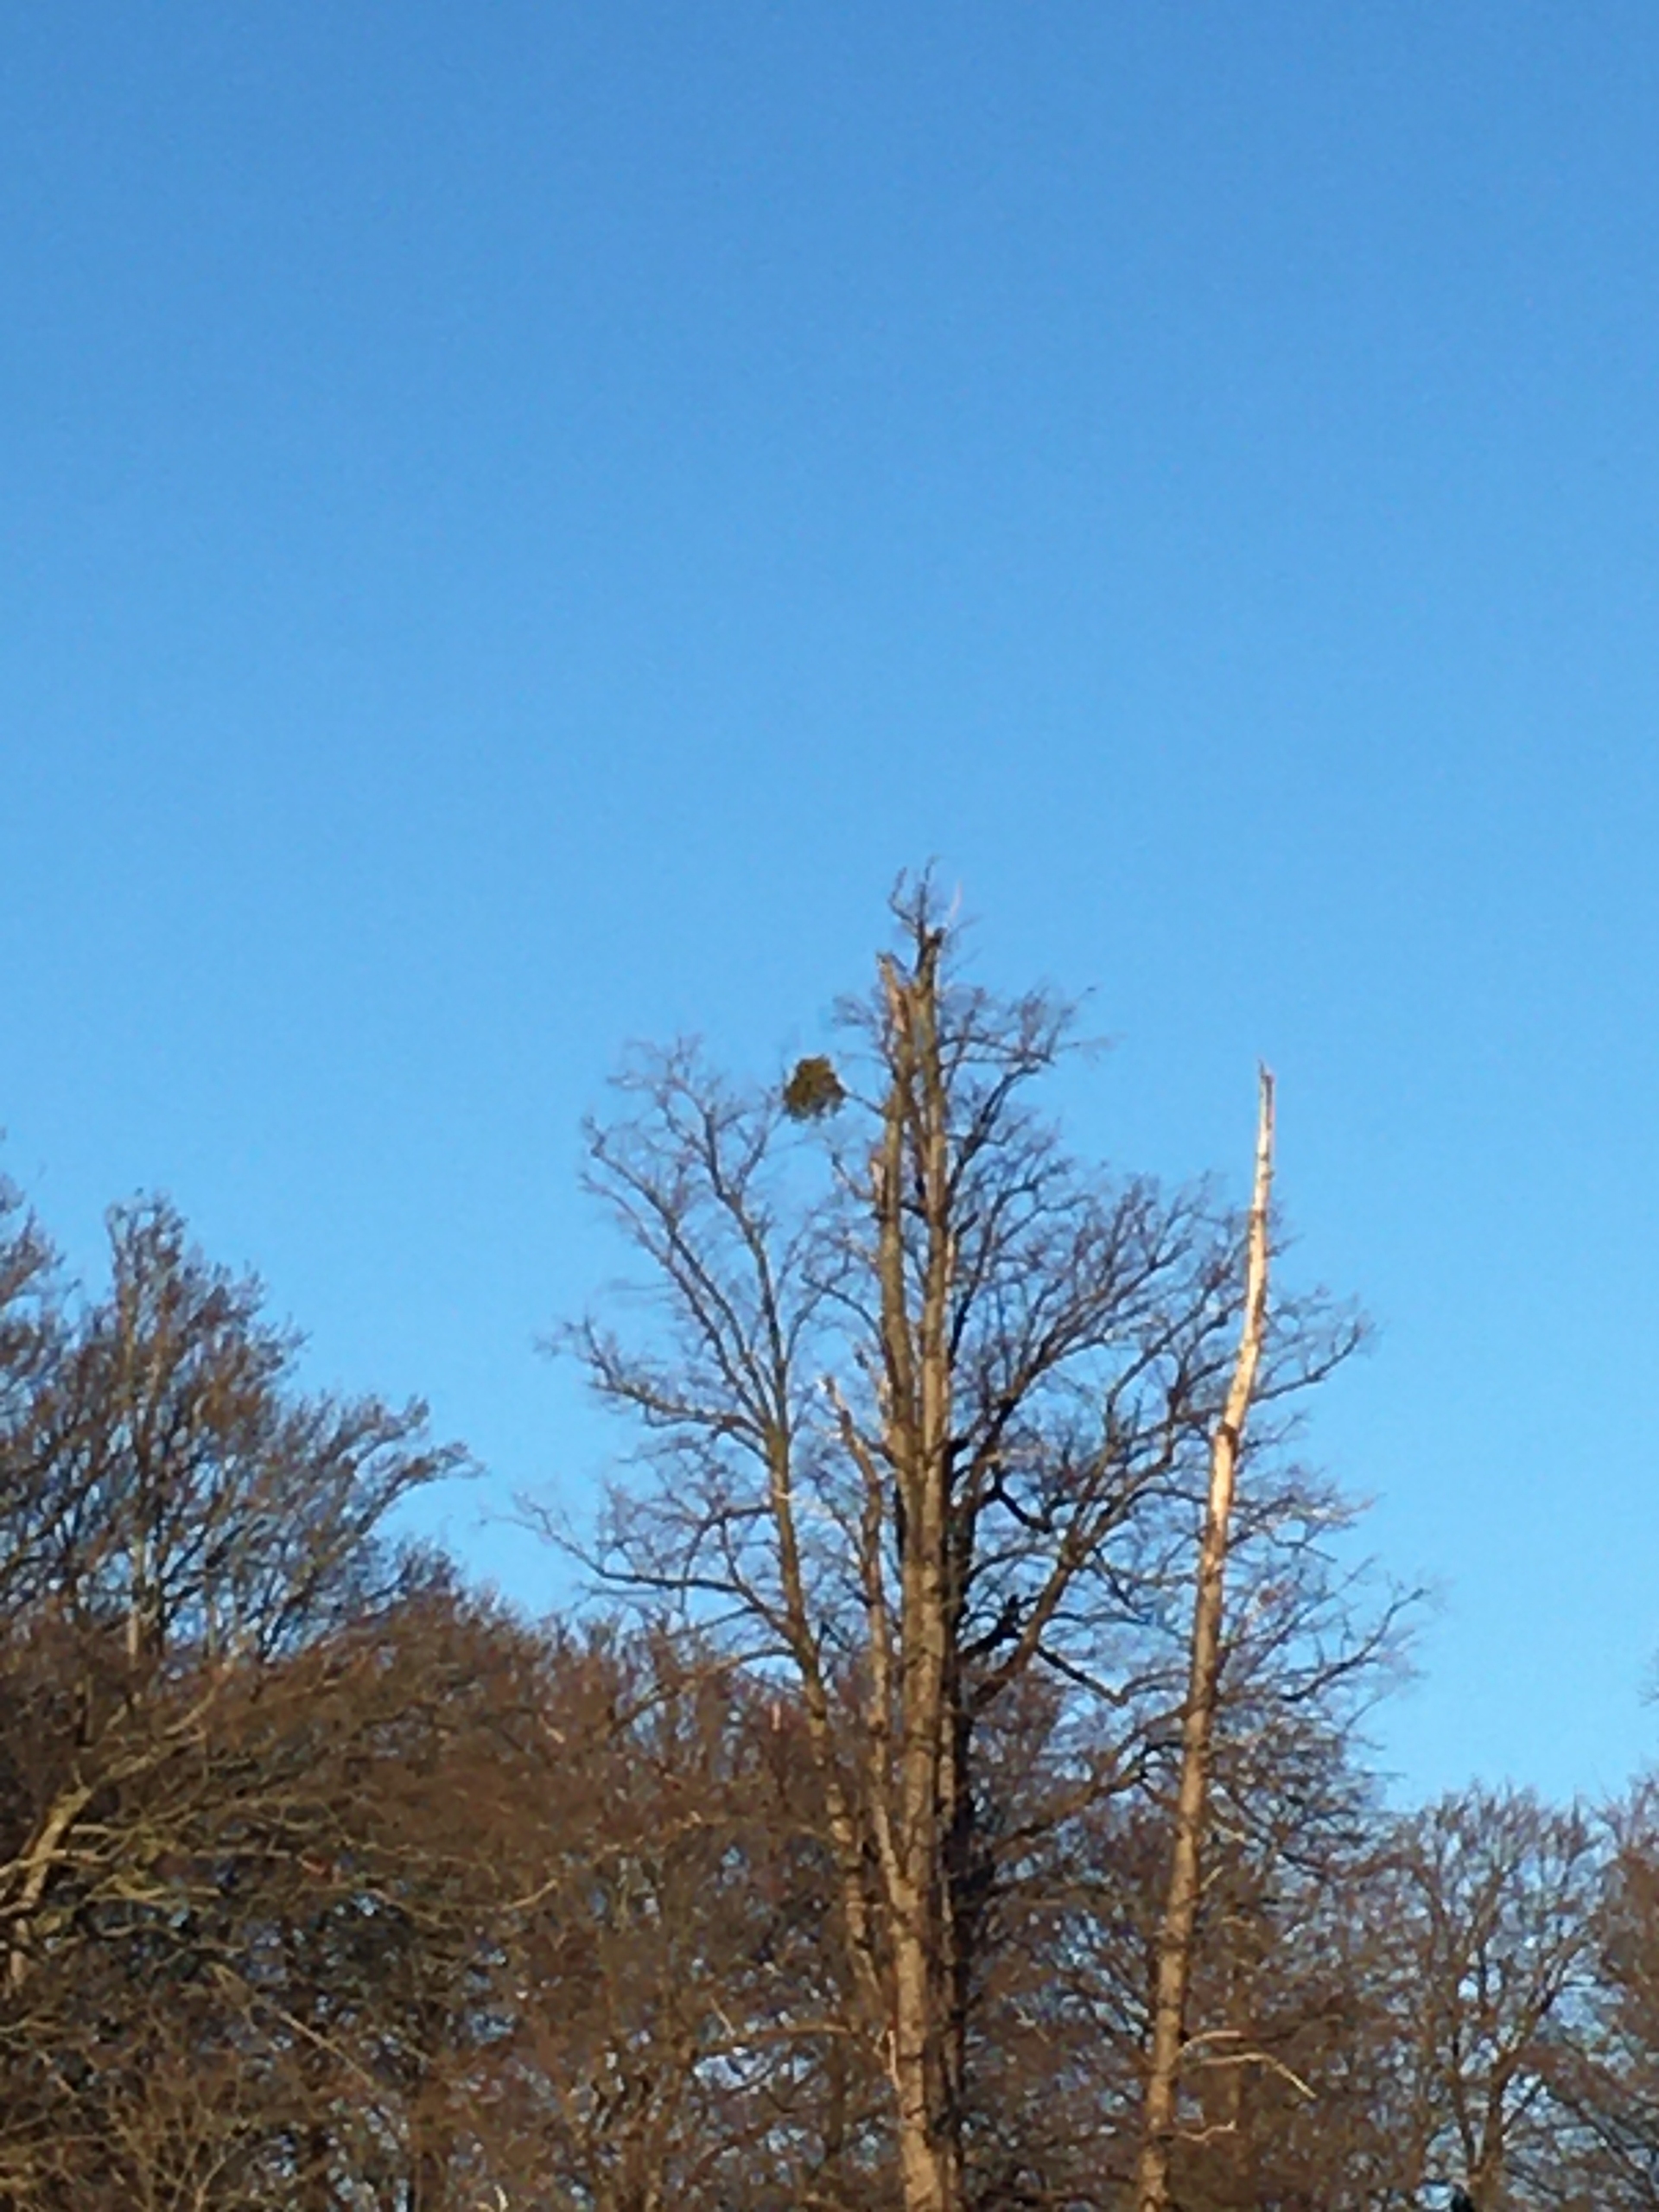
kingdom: Plantae
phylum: Tracheophyta
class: Magnoliopsida
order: Santalales
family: Viscaceae
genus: Viscum
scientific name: Viscum album
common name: Mistelten
